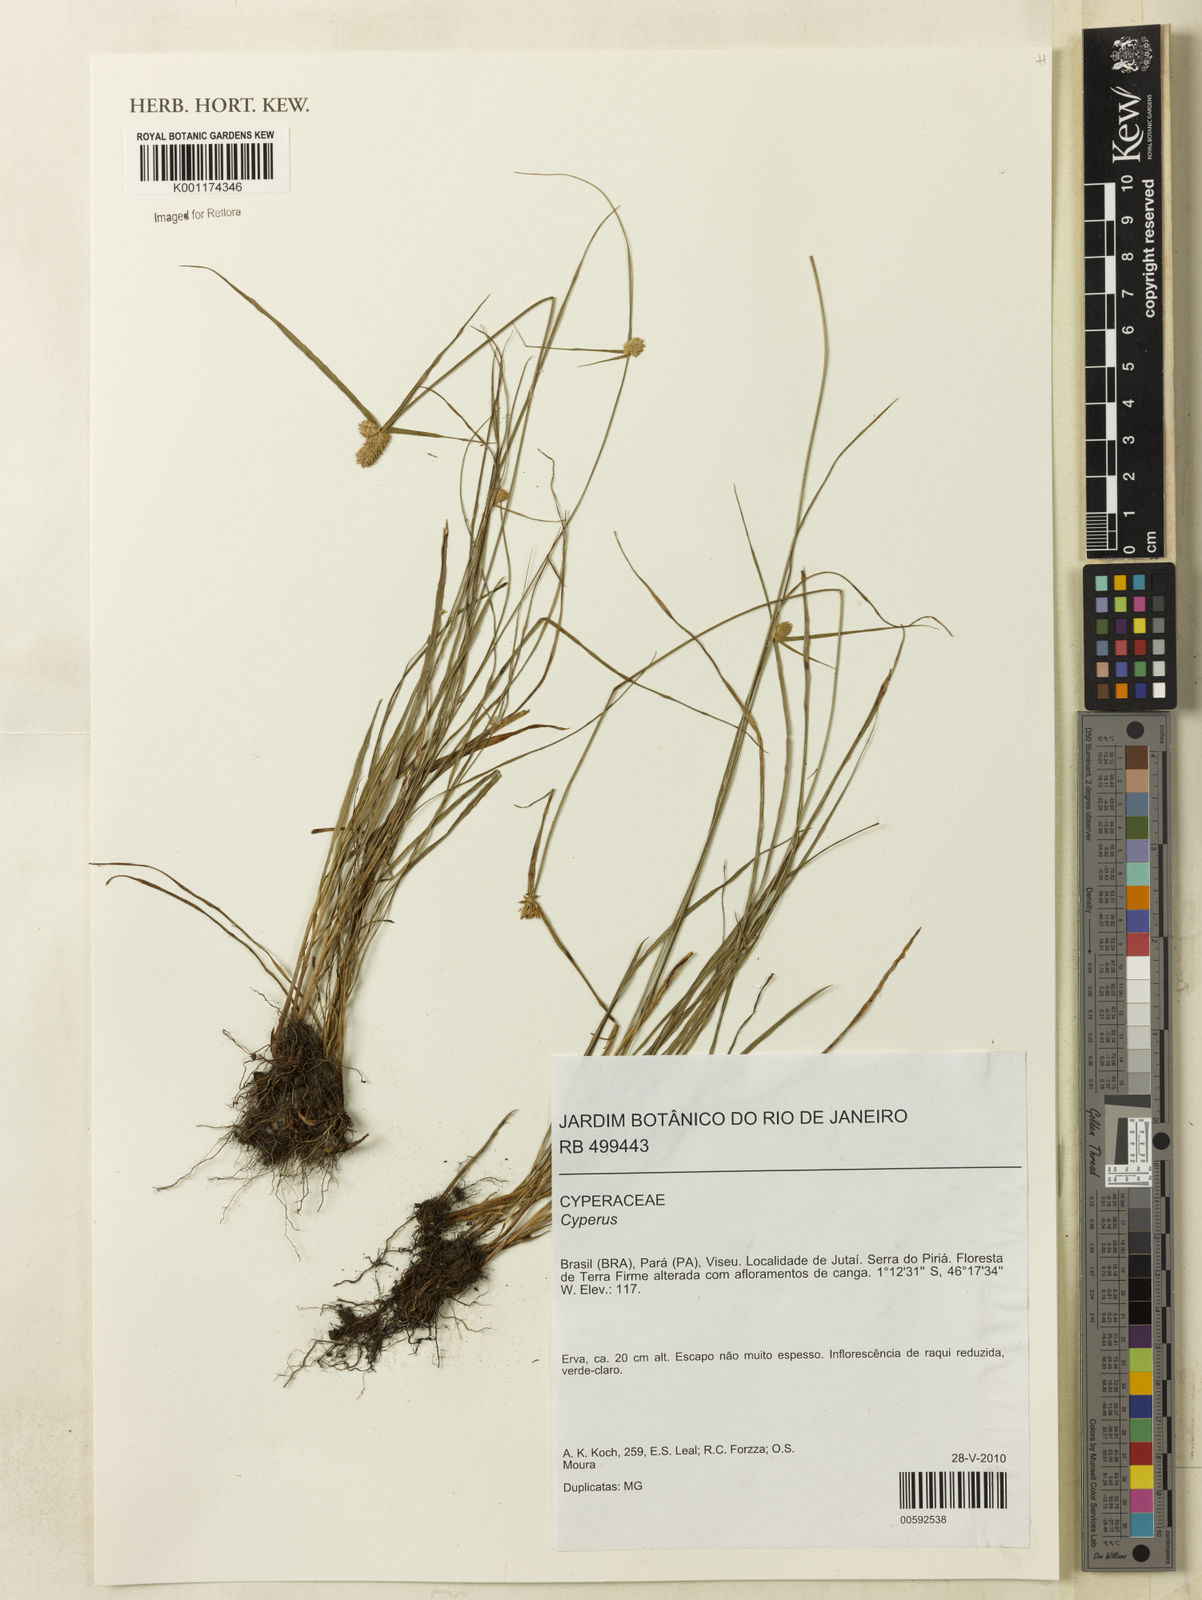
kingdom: Plantae
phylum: Tracheophyta
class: Liliopsida
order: Poales
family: Cyperaceae
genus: Cyperus
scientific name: Cyperus
